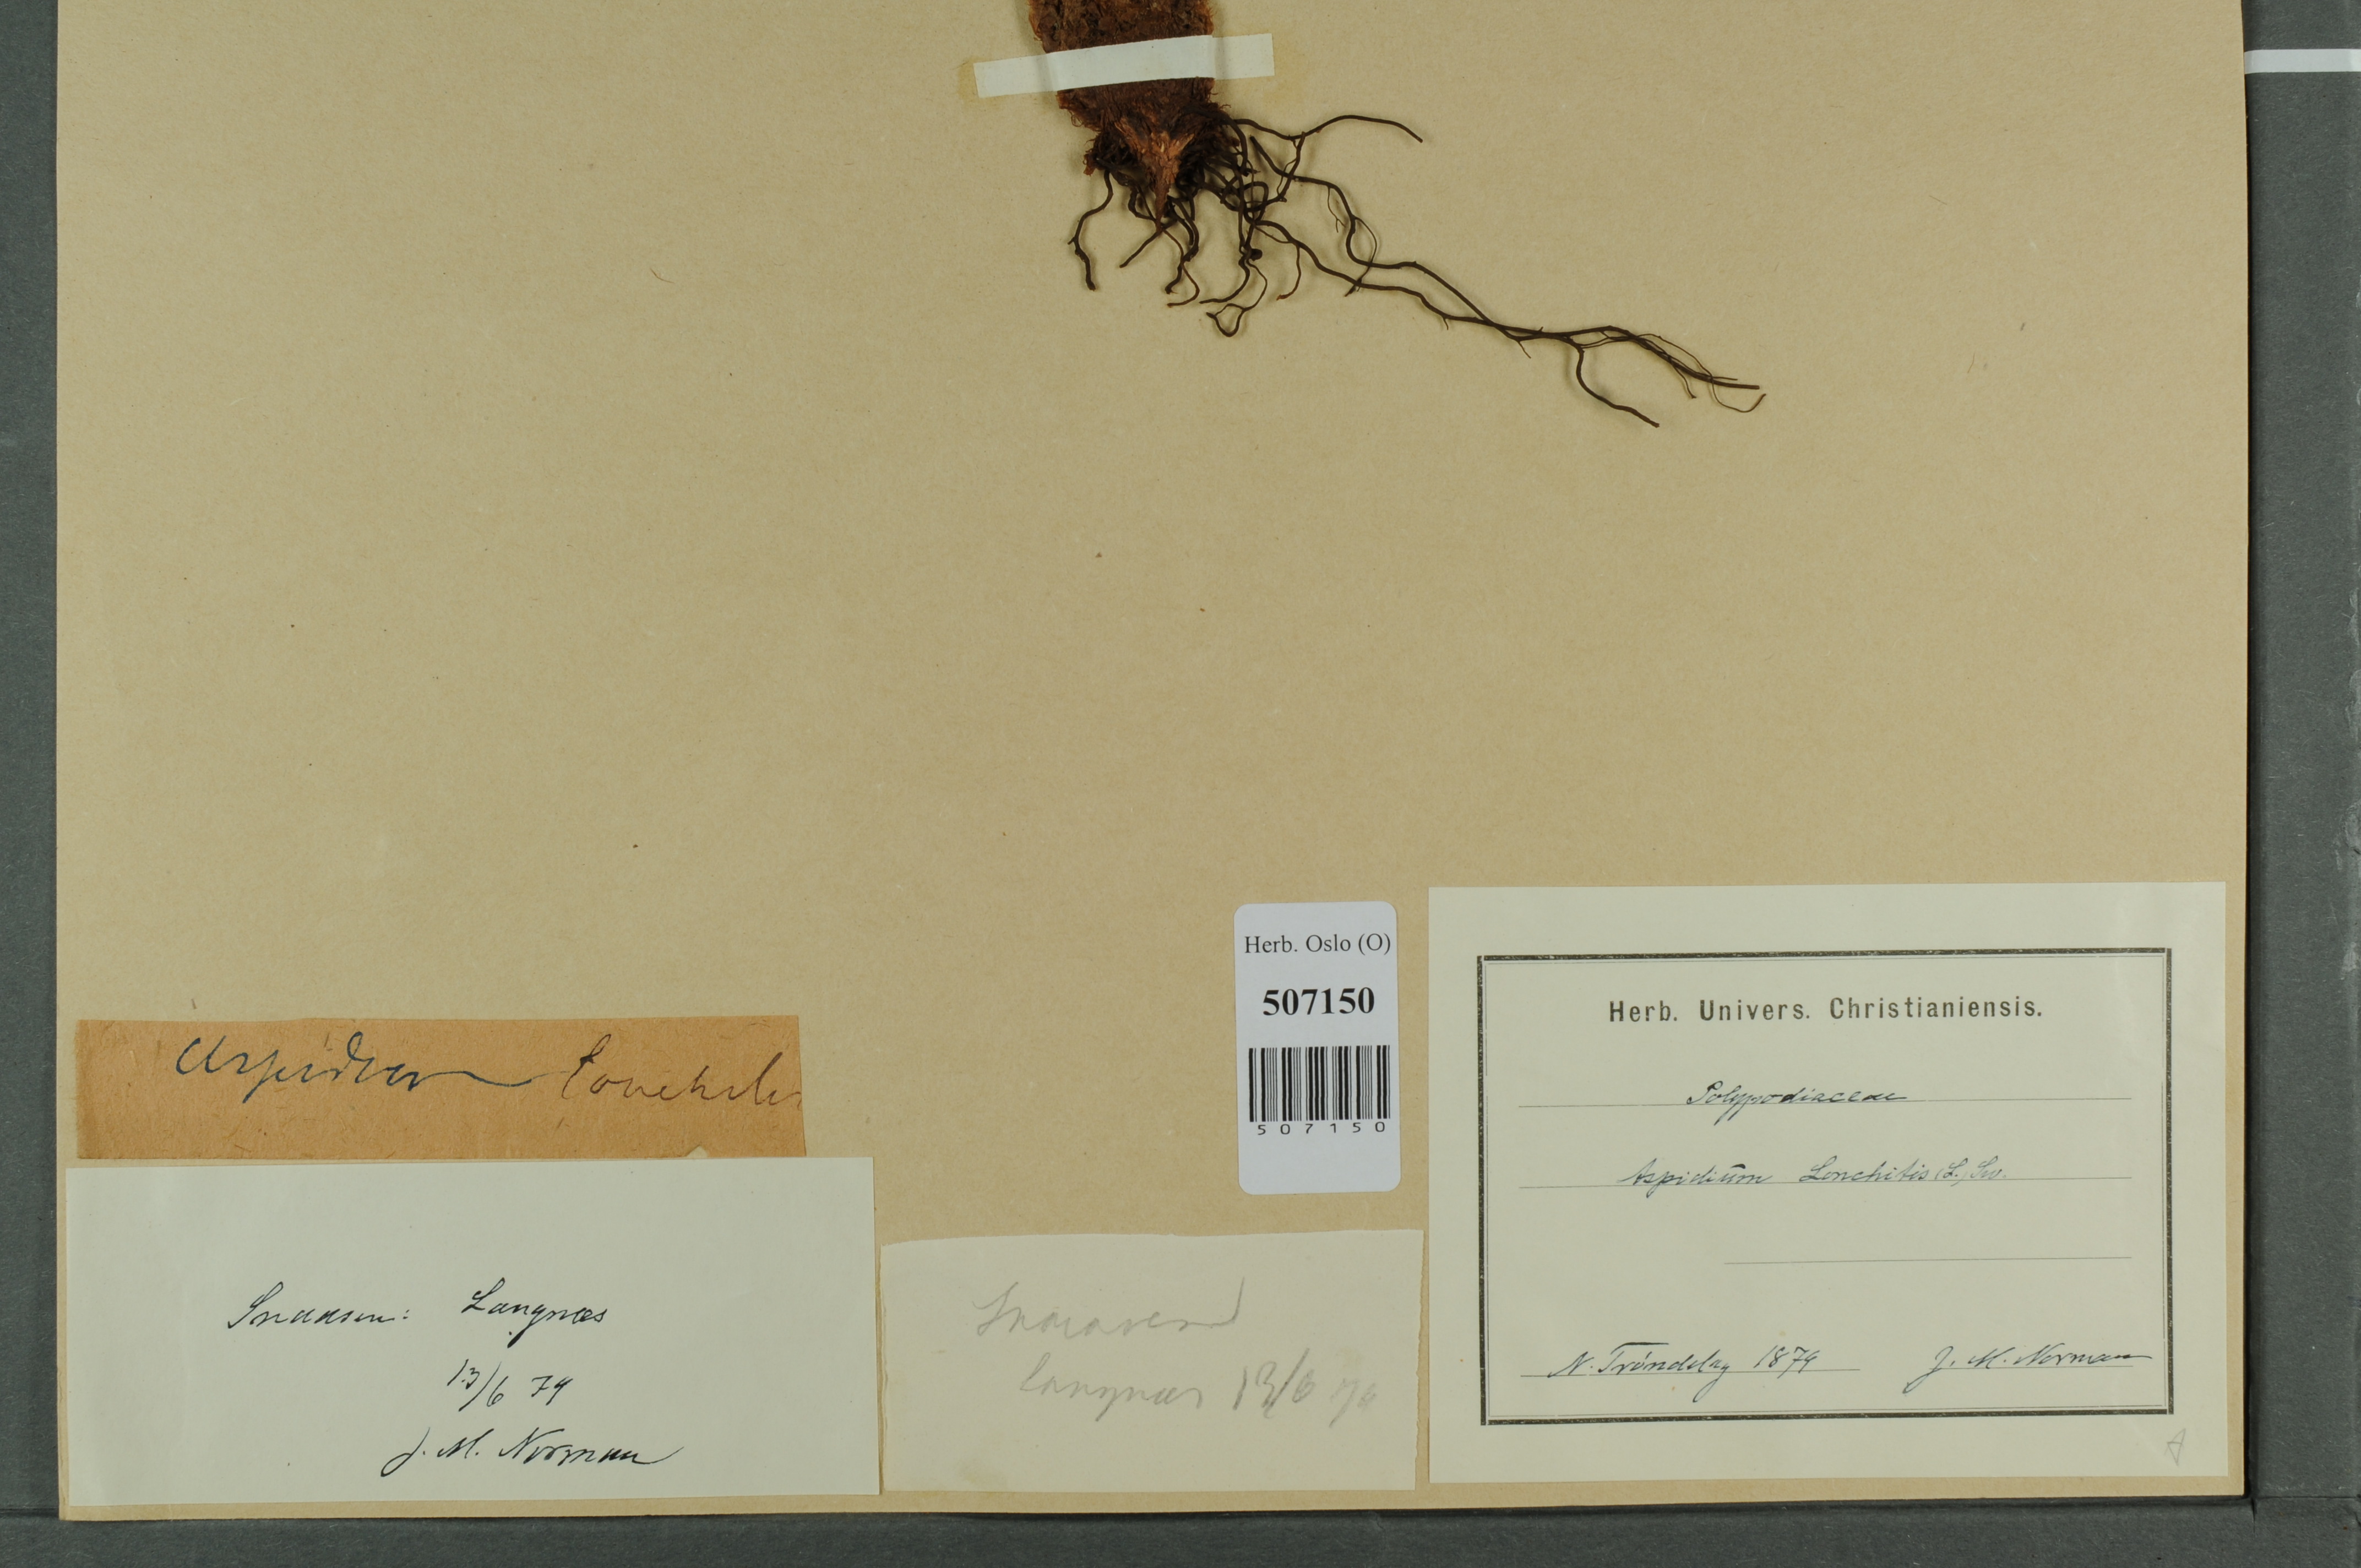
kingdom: Plantae
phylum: Tracheophyta
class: Polypodiopsida
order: Polypodiales
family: Dryopteridaceae
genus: Polystichum
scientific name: Polystichum lonchitis
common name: Holly fern
